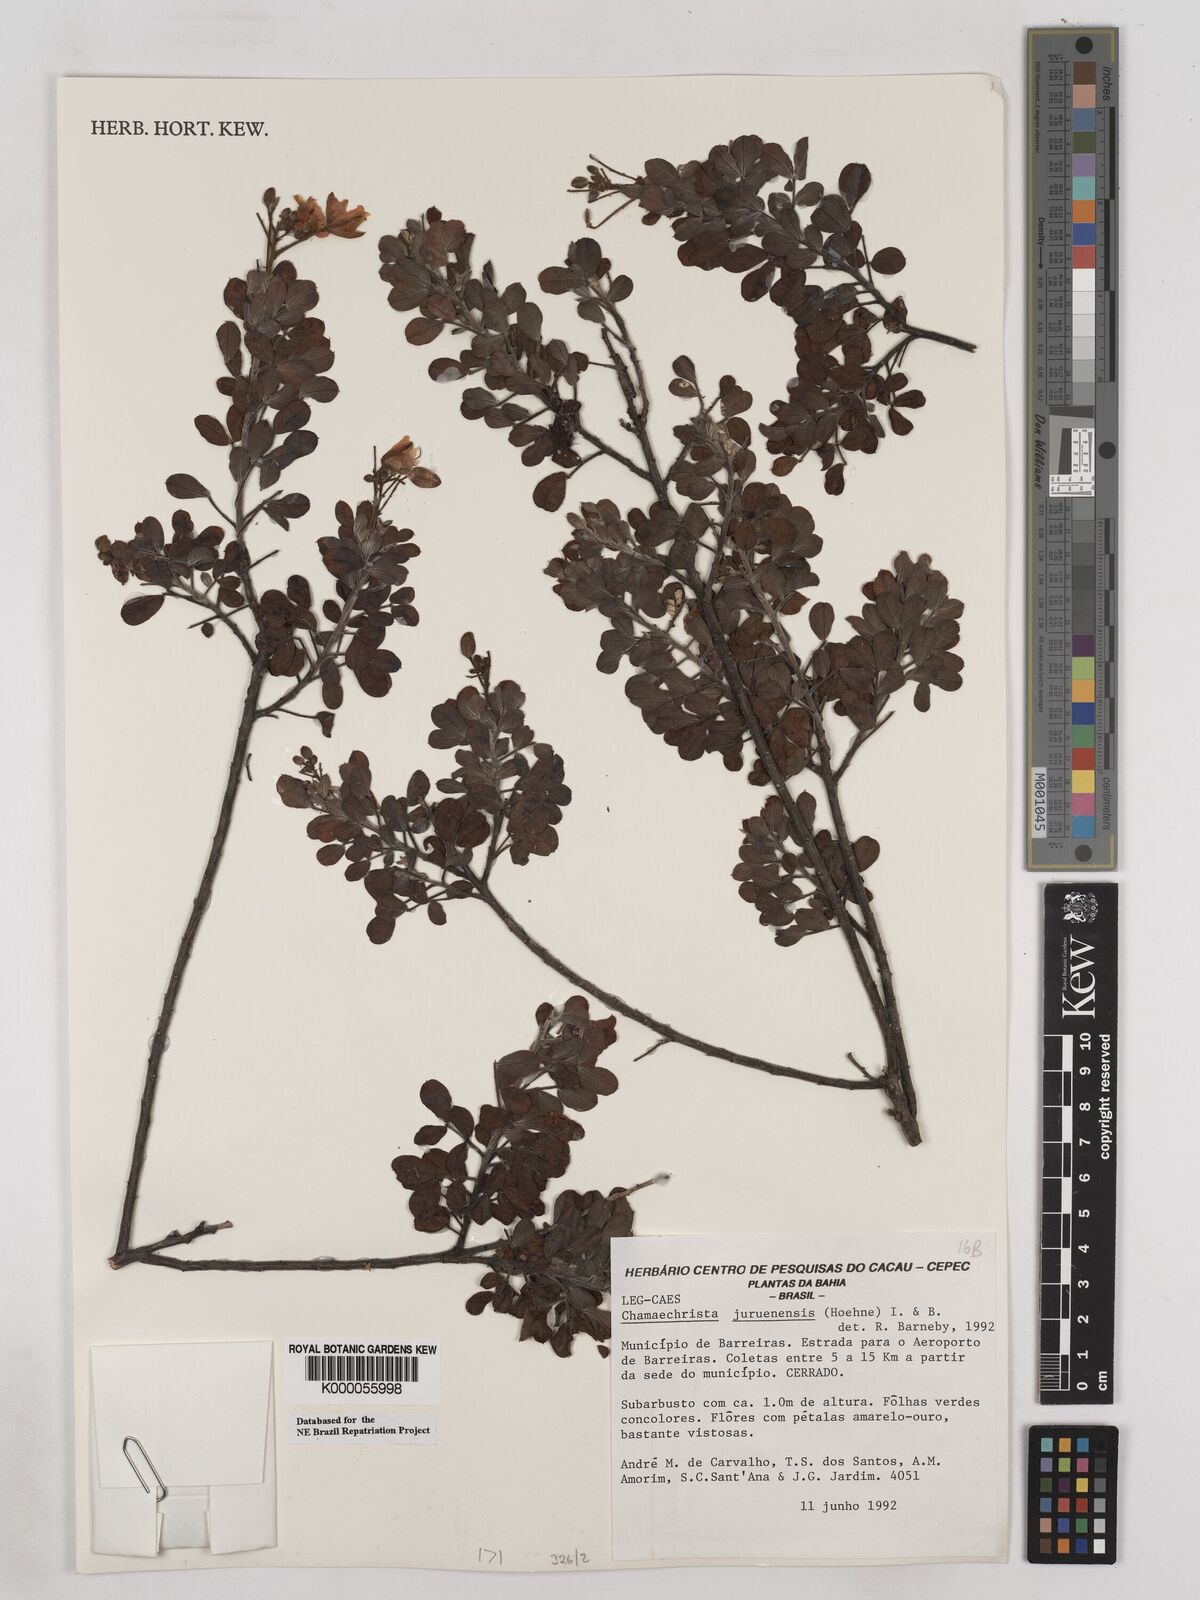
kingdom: Plantae
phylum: Tracheophyta
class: Magnoliopsida
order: Fabales
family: Fabaceae
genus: Chamaecrista
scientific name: Chamaecrista juruenensis
